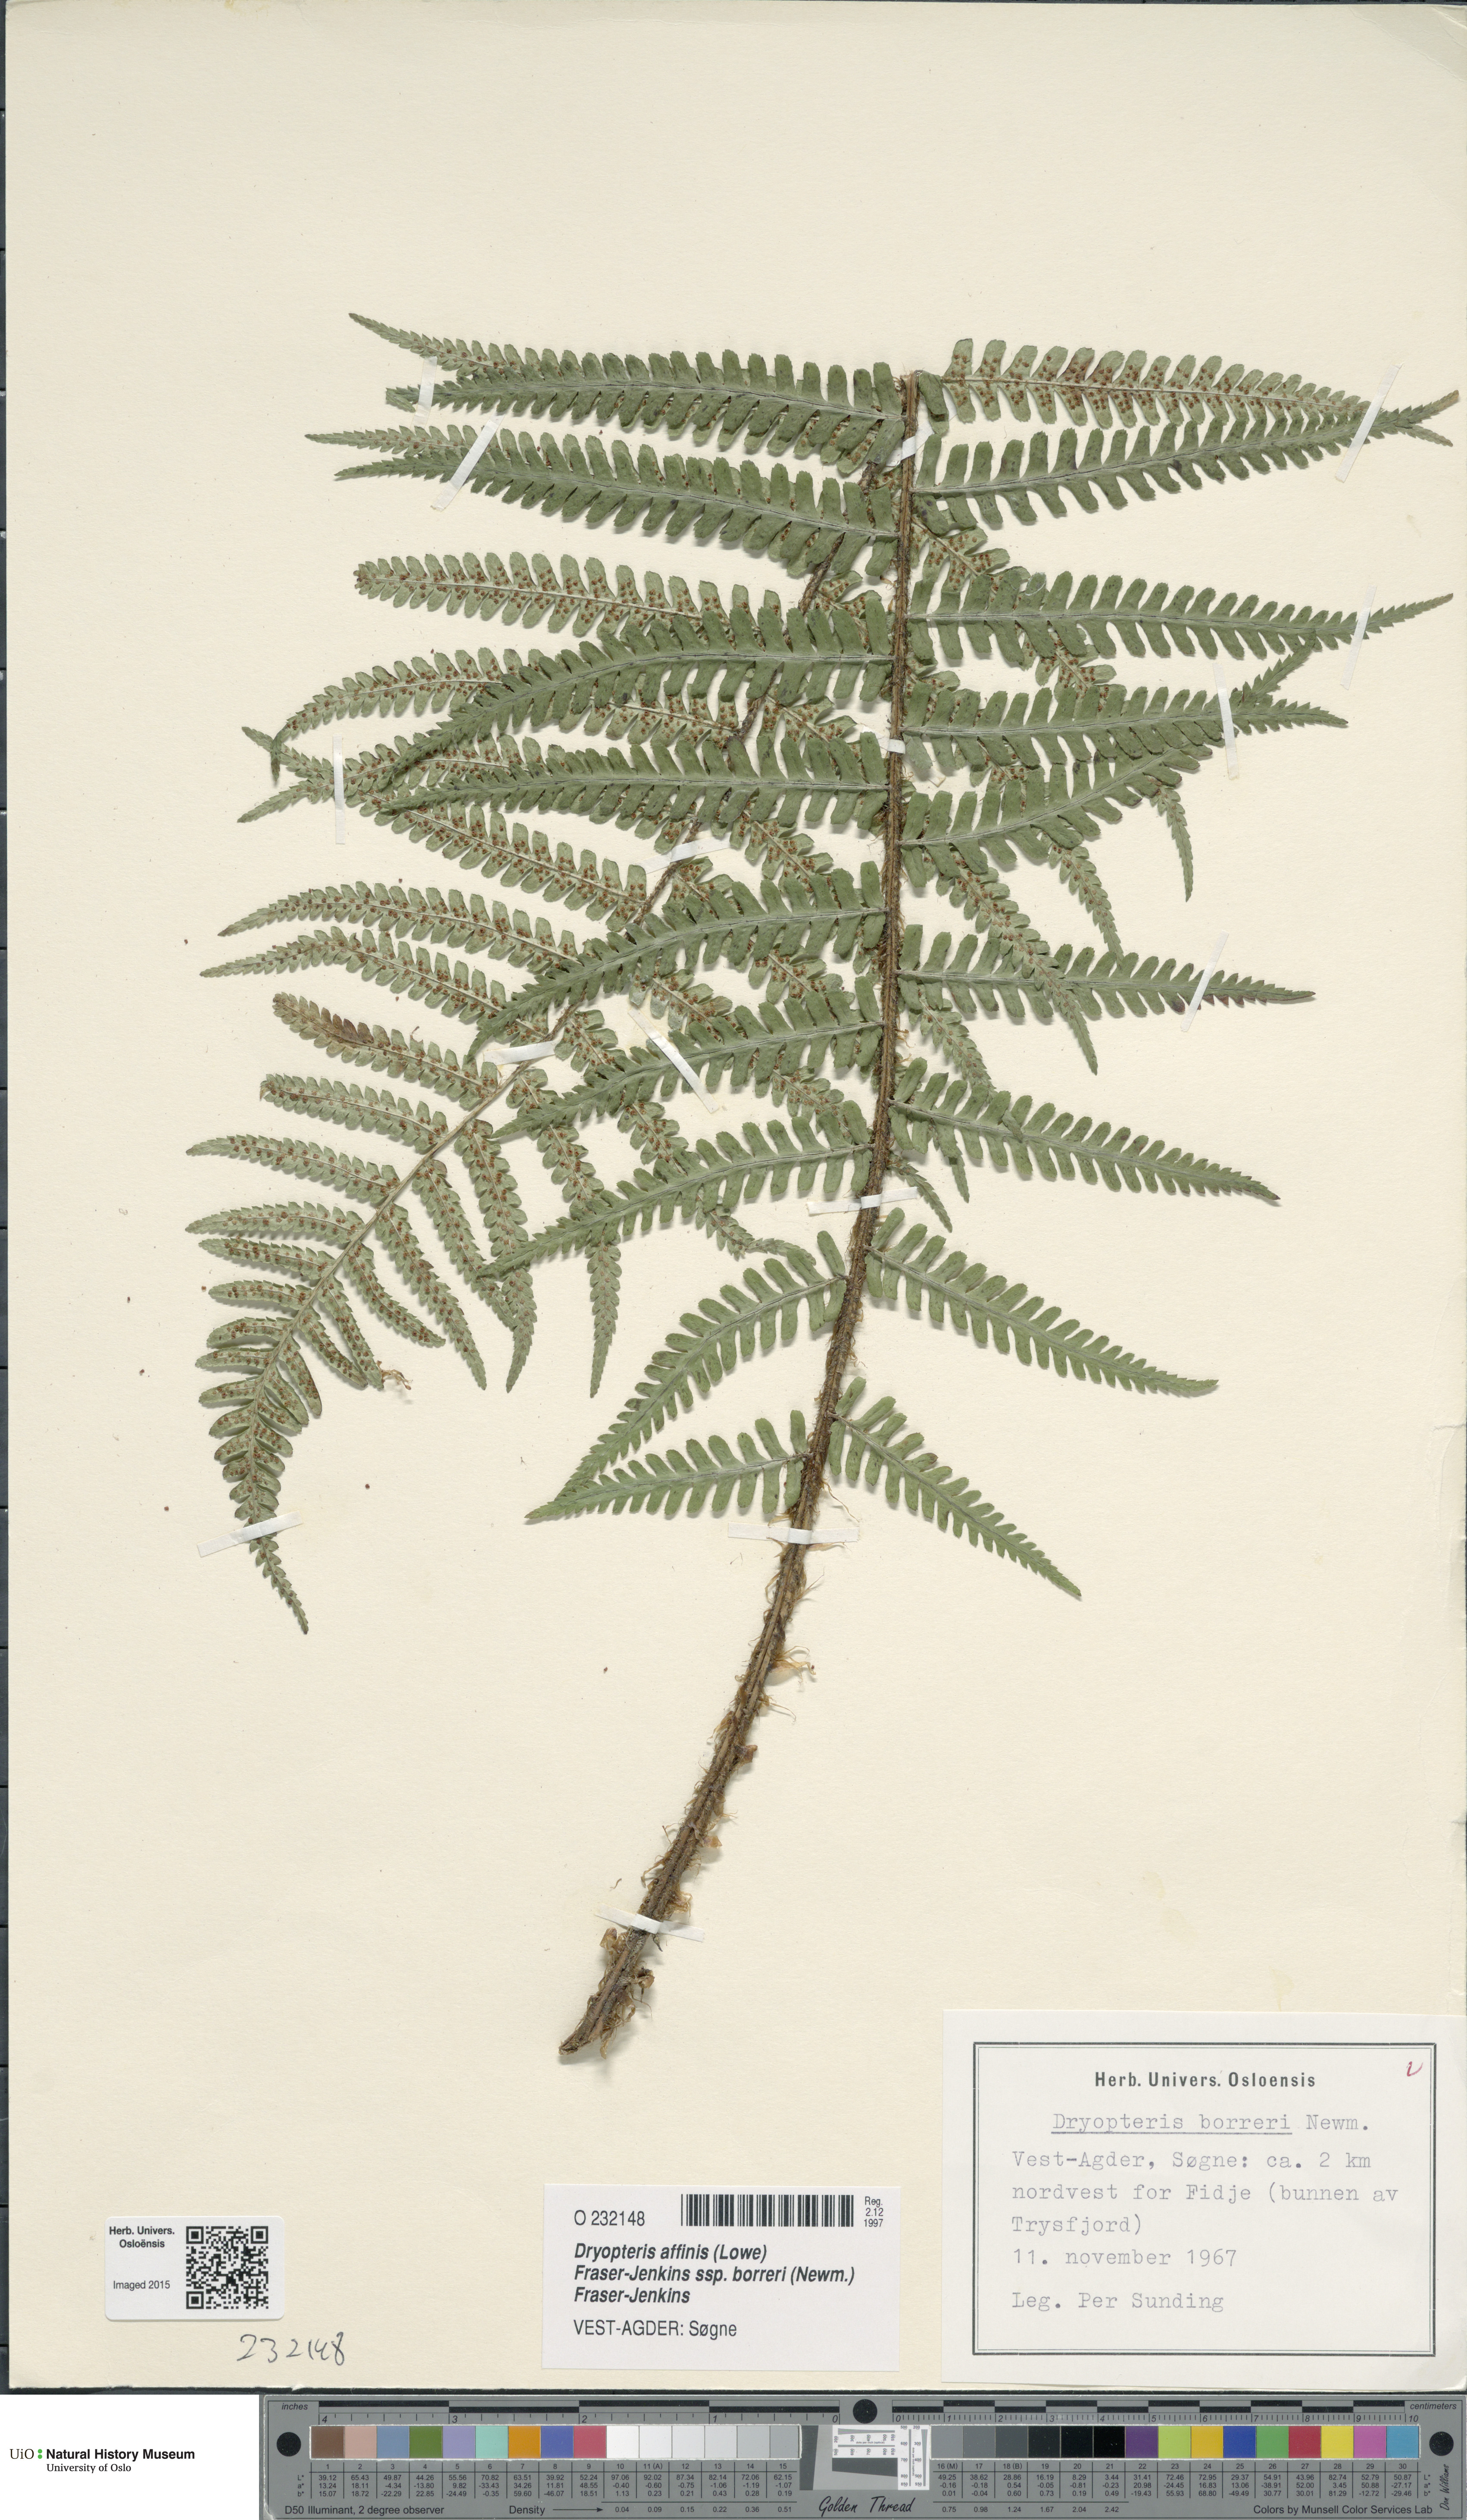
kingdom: Plantae
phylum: Tracheophyta
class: Polypodiopsida
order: Polypodiales
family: Dryopteridaceae
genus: Dryopteris
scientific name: Dryopteris borreri
